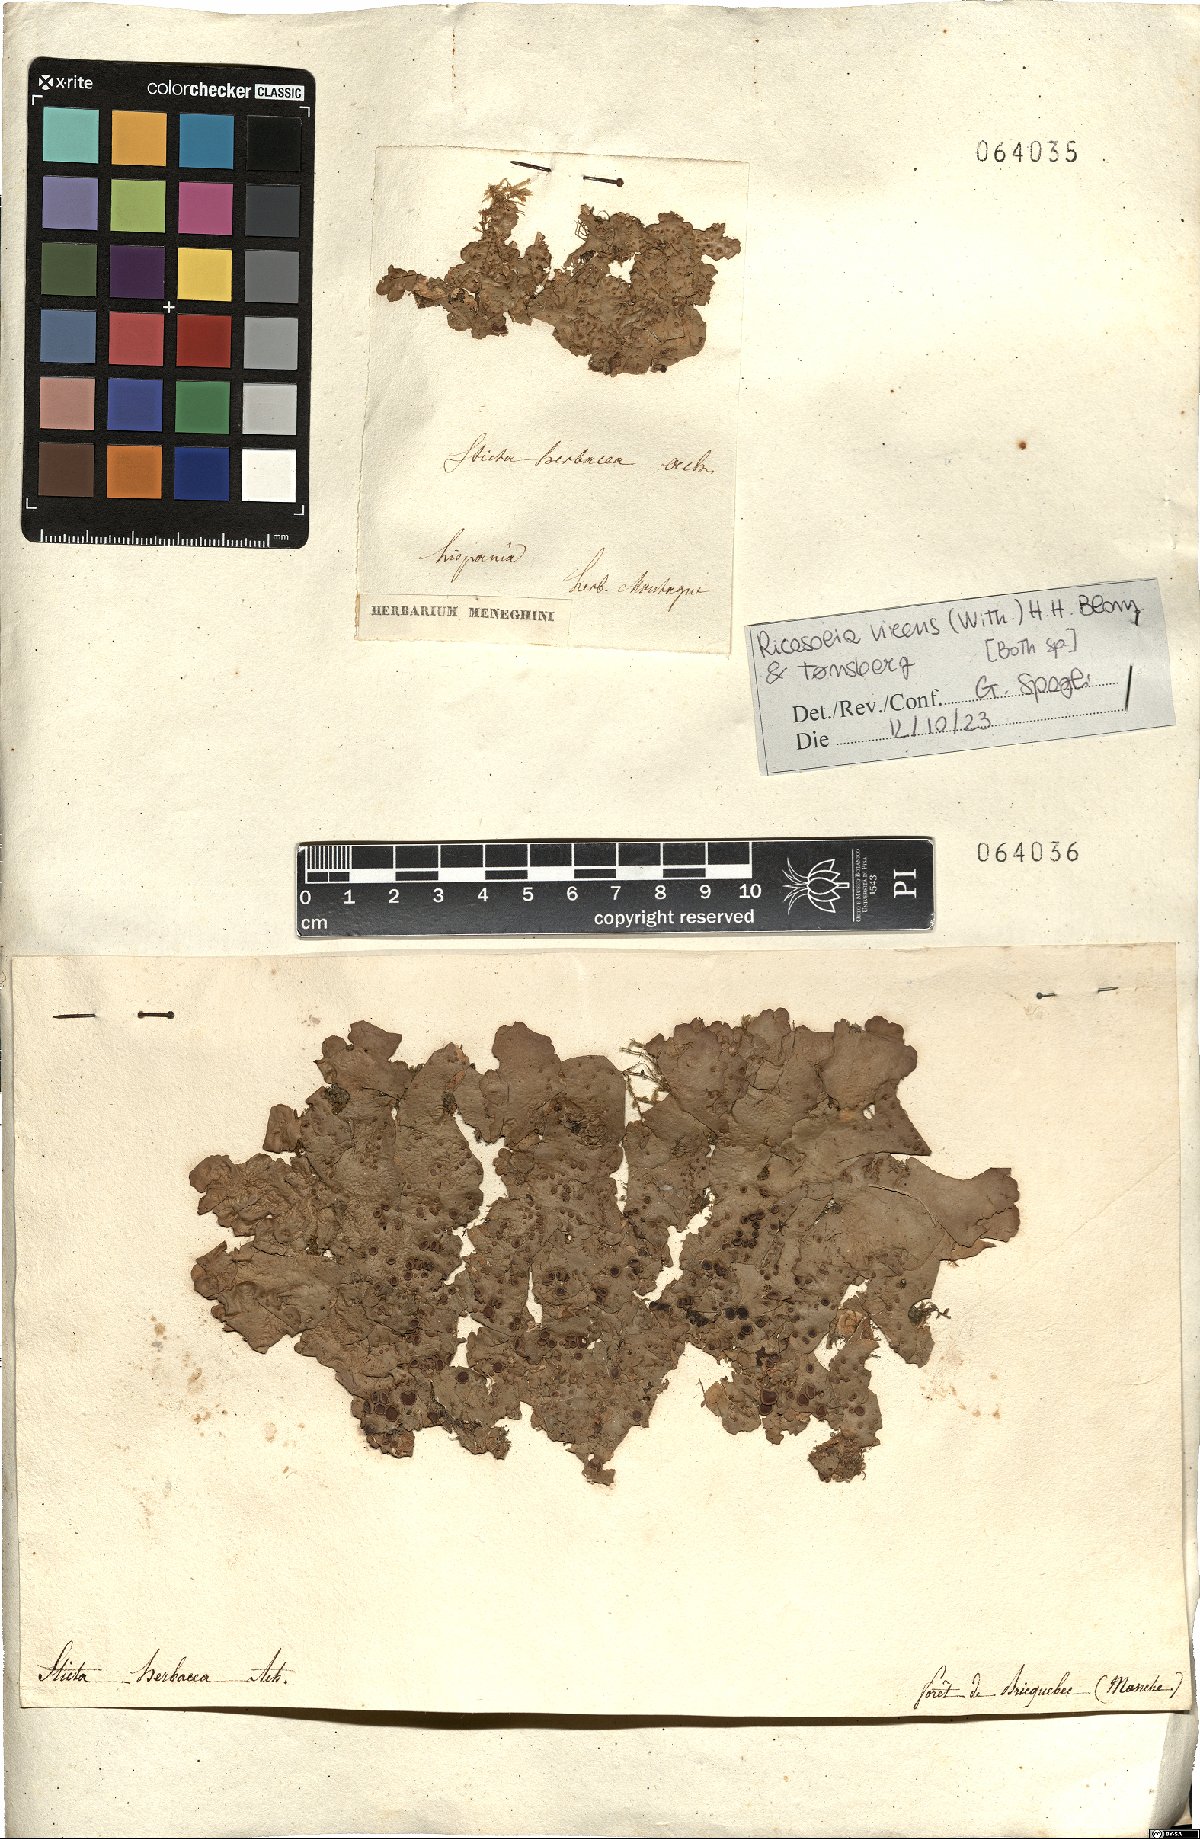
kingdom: Fungi
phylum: Ascomycota
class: Lecanoromycetes
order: Peltigerales
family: Lobariaceae
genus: Ricasolia
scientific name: Ricasolia virens
